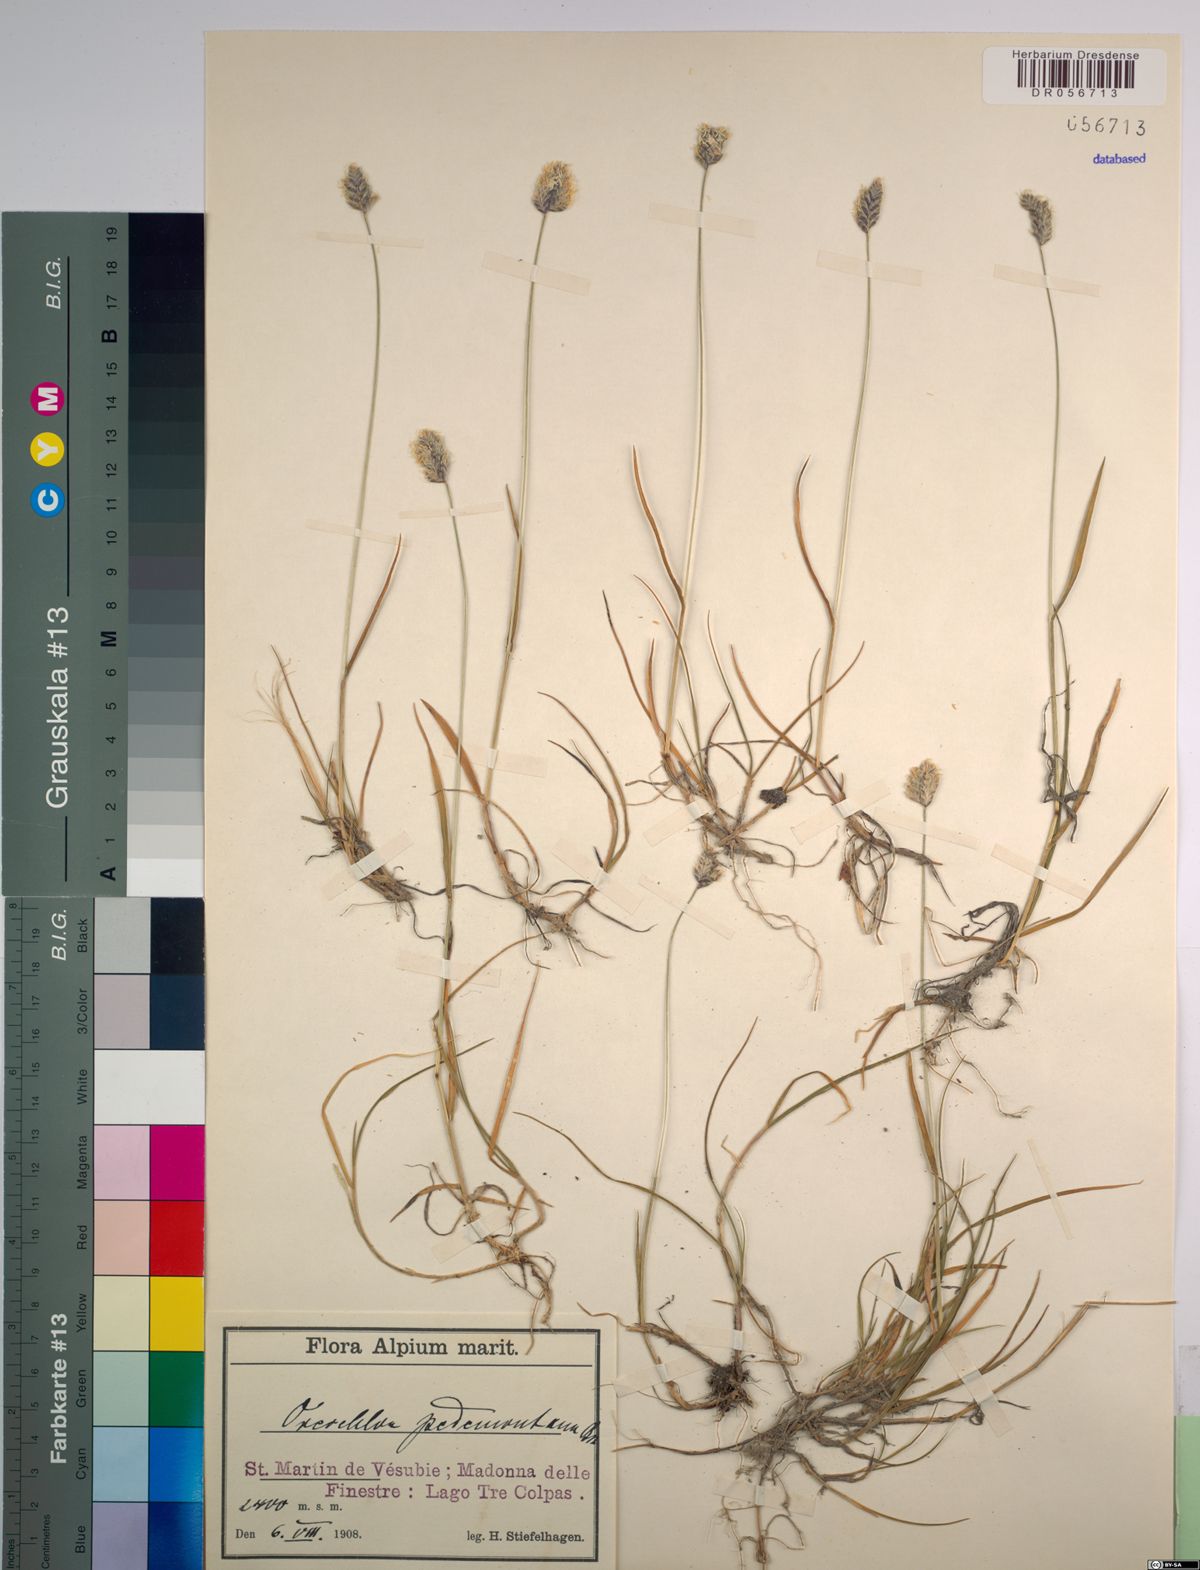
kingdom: Plantae
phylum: Tracheophyta
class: Liliopsida
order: Poales
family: Poaceae
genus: Oreochloa
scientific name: Oreochloa seslerioides
